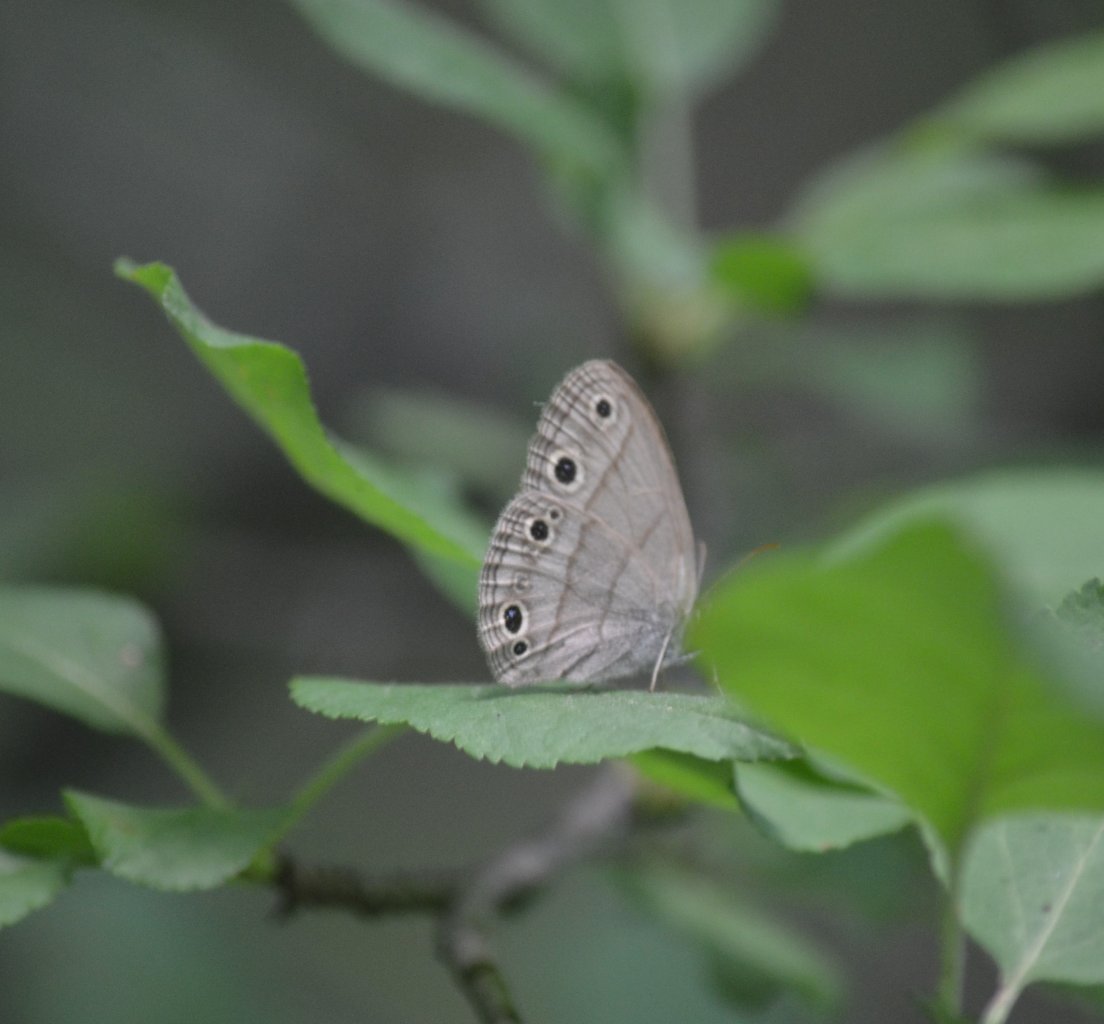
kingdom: Animalia
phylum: Arthropoda
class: Insecta
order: Lepidoptera
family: Nymphalidae
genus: Euptychia
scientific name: Euptychia cymela
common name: Little Wood Satyr
